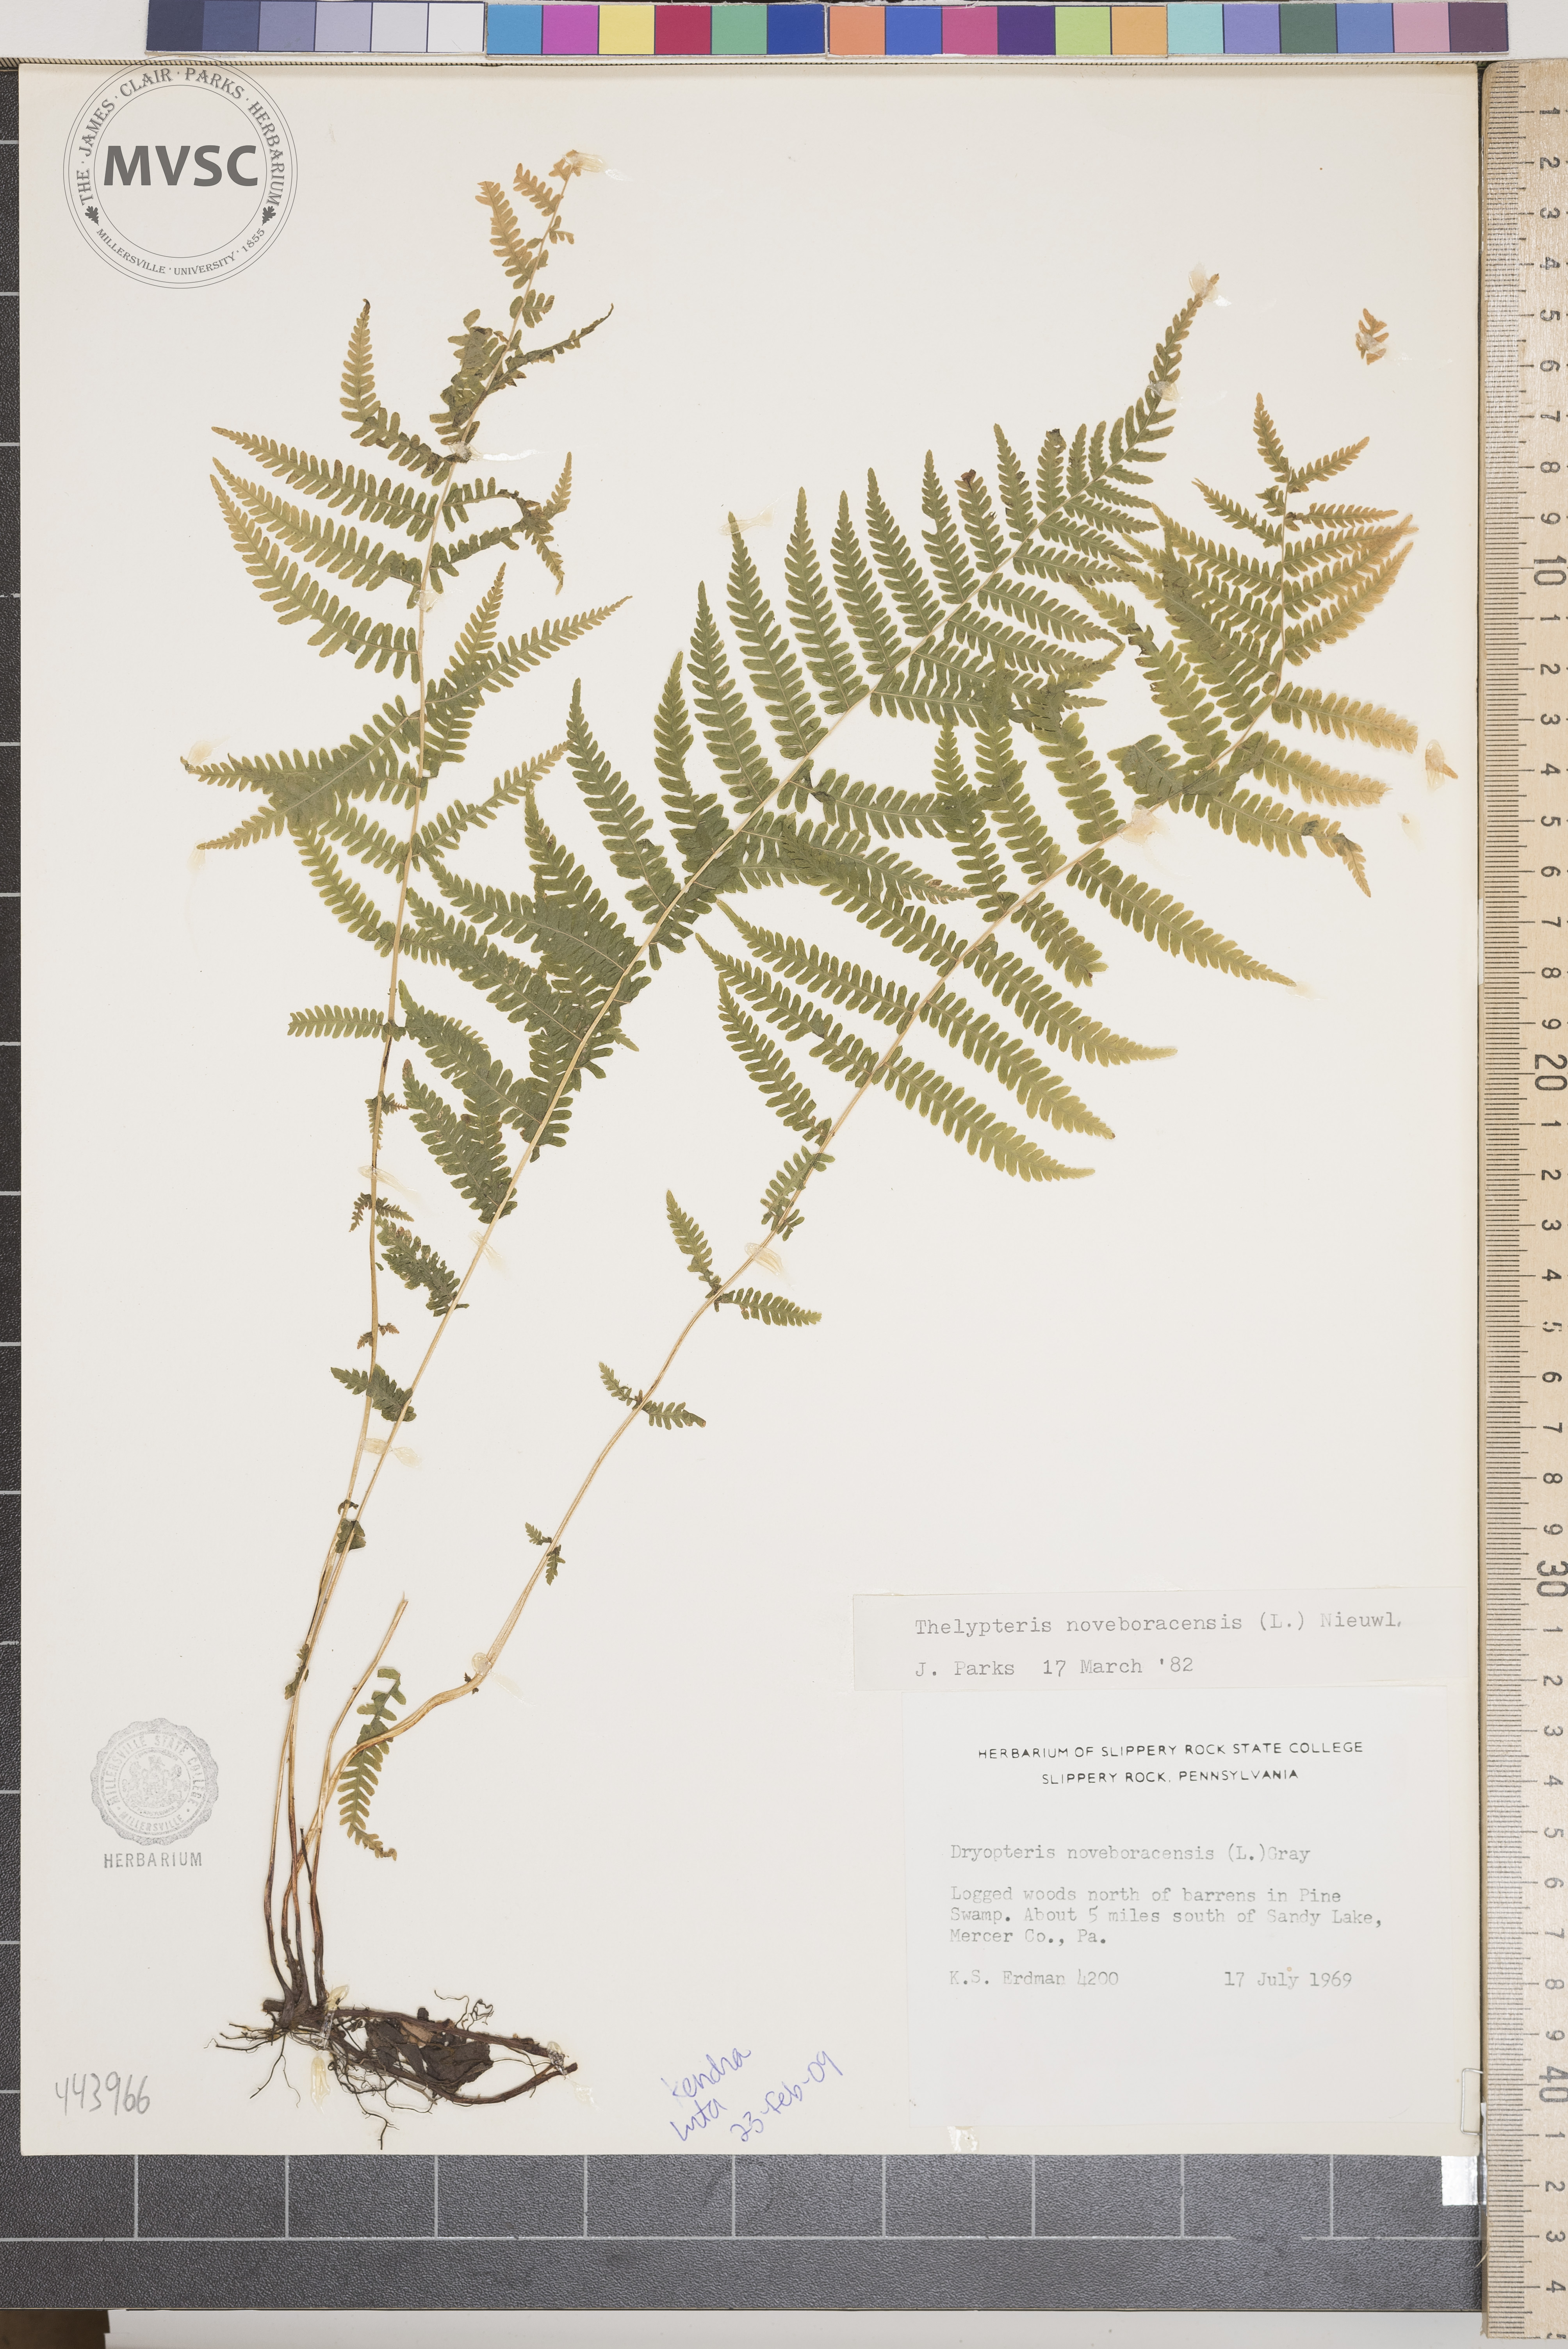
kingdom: Plantae
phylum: Tracheophyta
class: Polypodiopsida
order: Polypodiales
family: Thelypteridaceae
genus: Amauropelta
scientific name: Amauropelta noveboracensis
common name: New york fern
